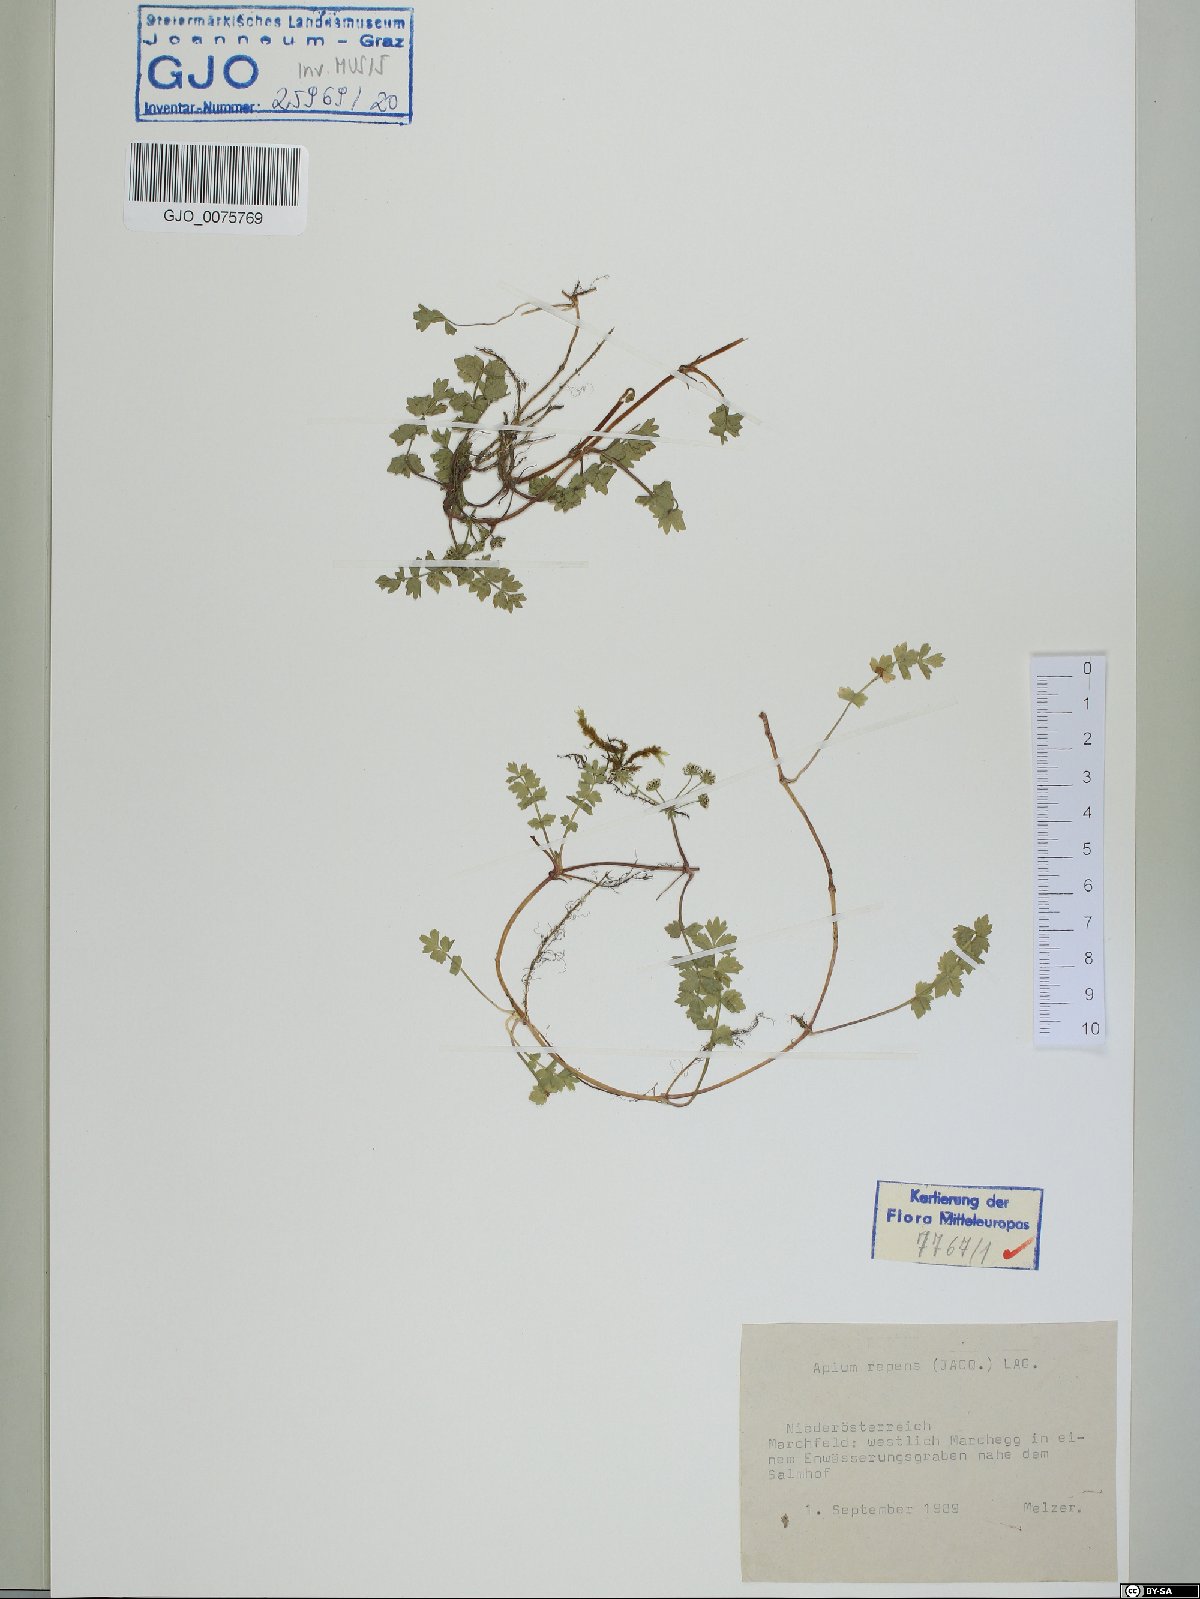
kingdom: Plantae
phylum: Tracheophyta
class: Magnoliopsida
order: Apiales
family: Apiaceae
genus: Helosciadium
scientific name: Helosciadium repens
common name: Creeping marshwort
